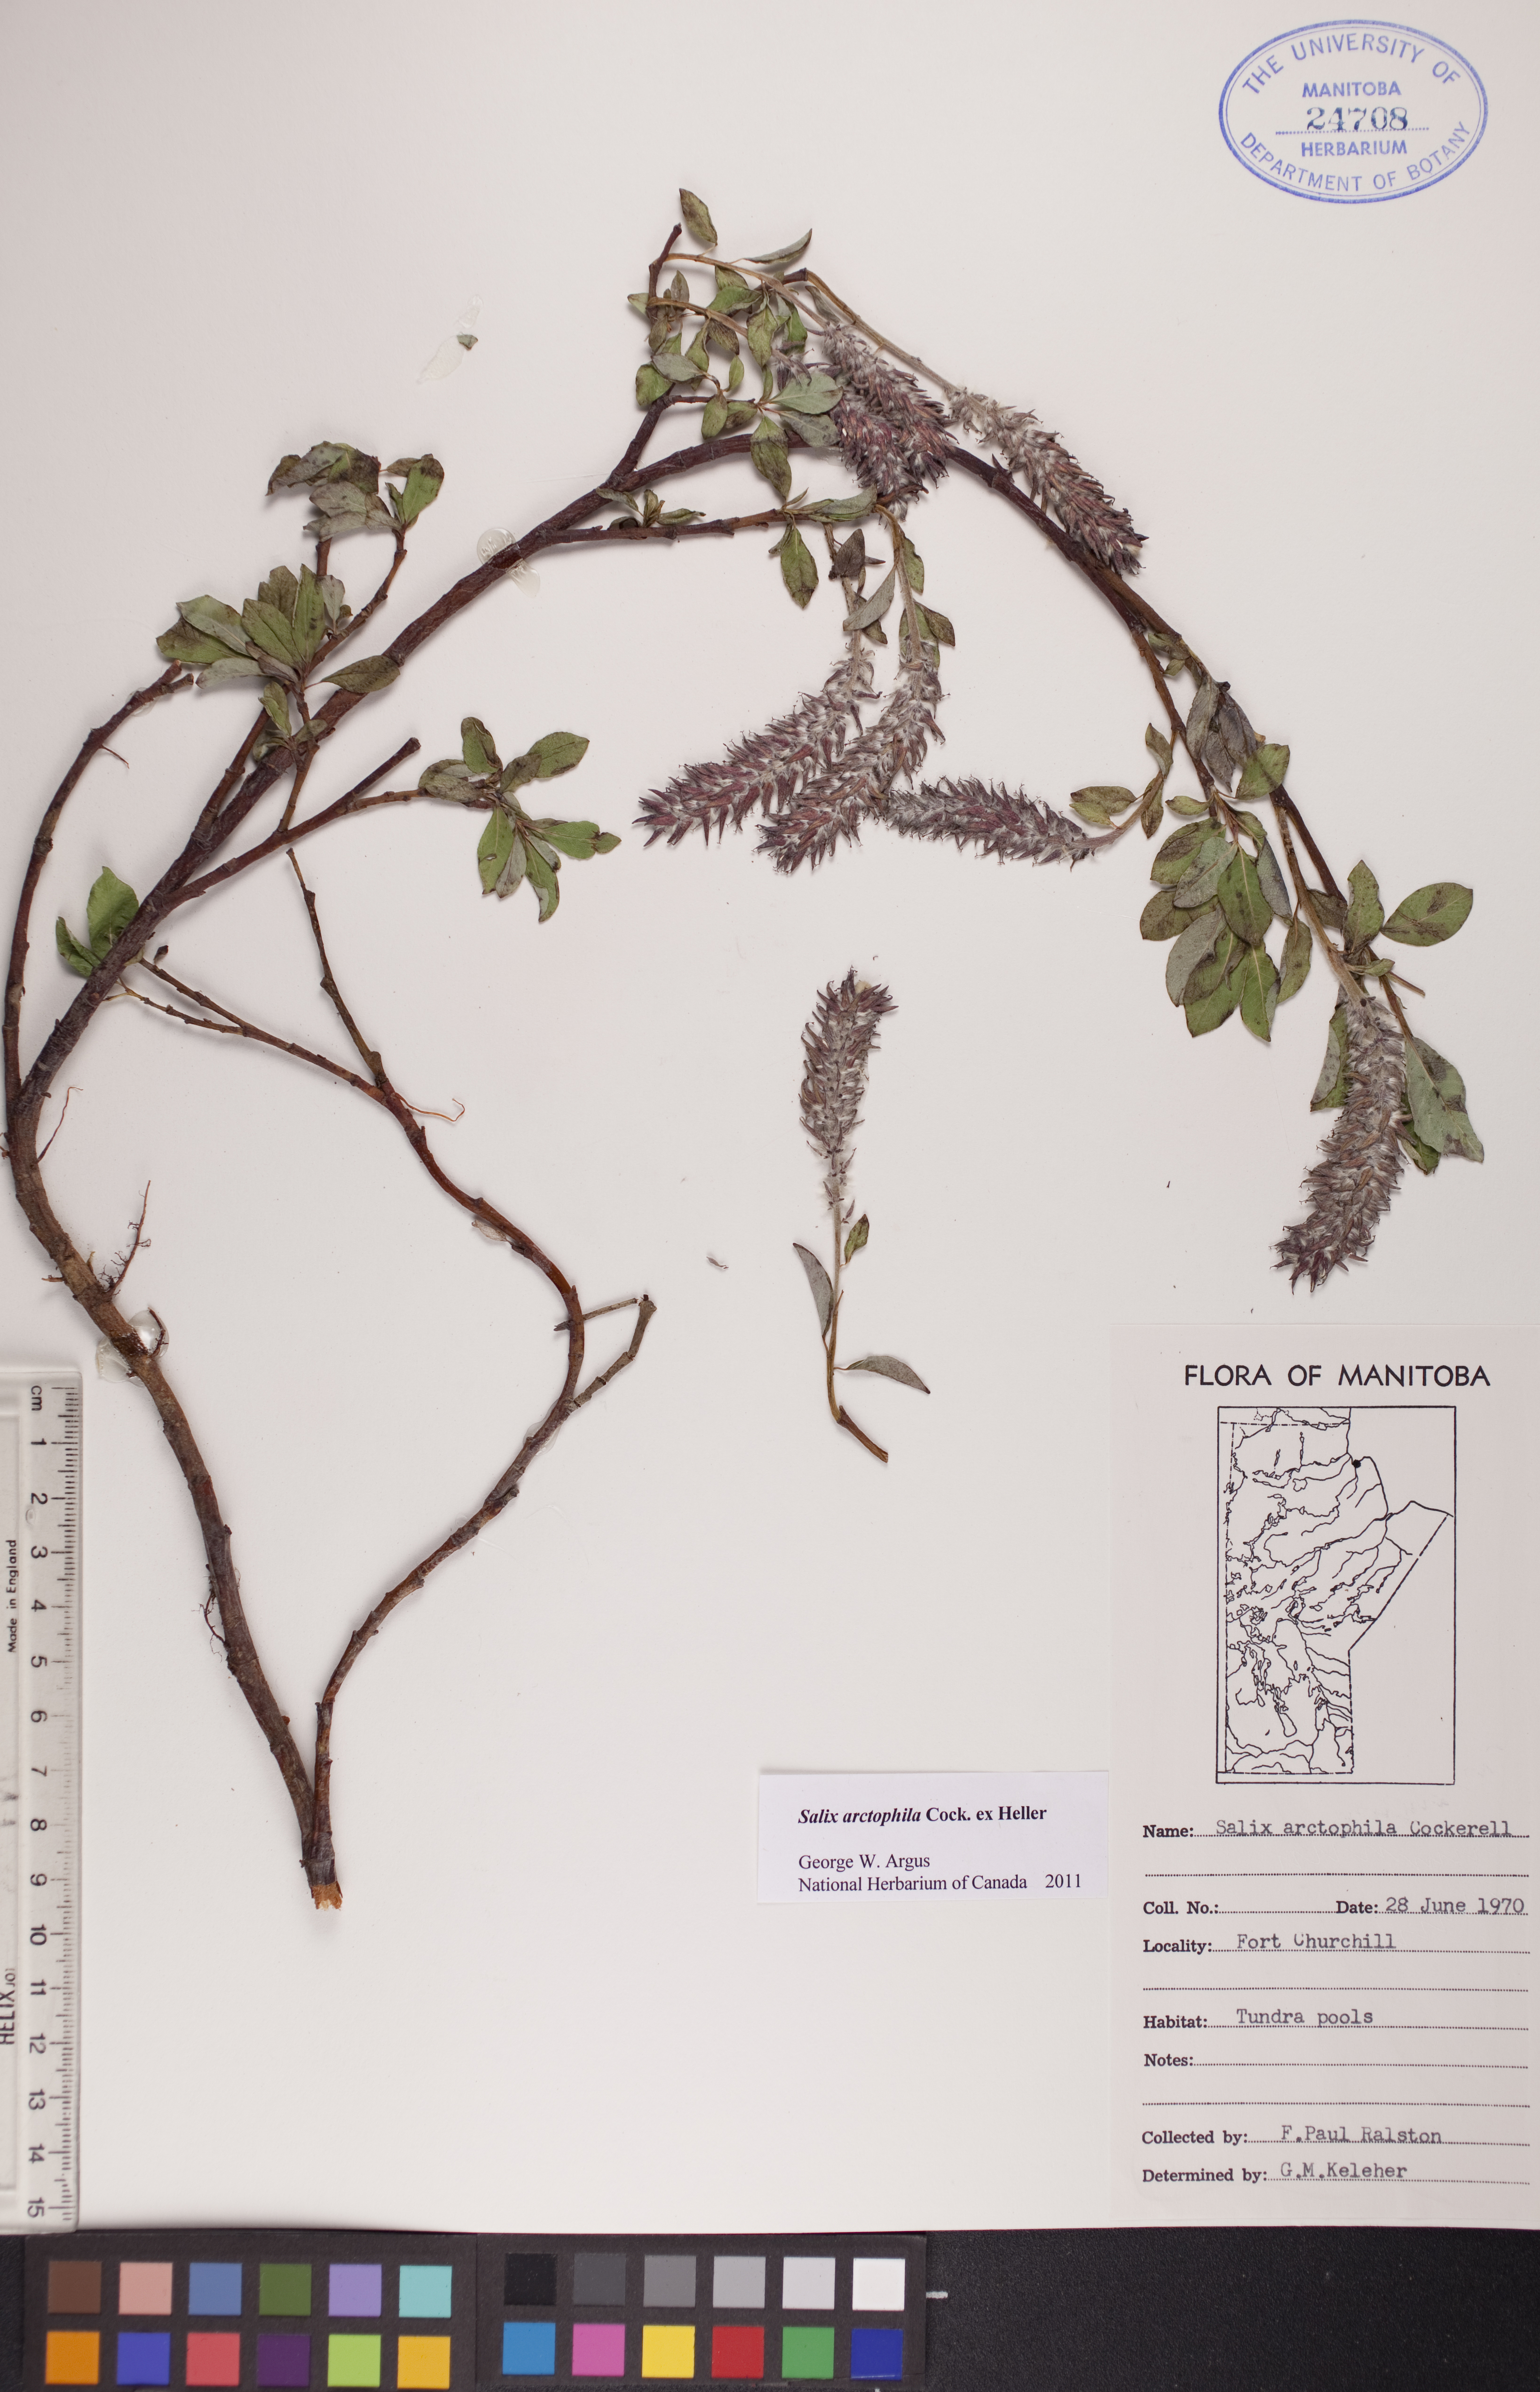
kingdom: Plantae
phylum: Tracheophyta
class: Magnoliopsida
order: Malpighiales
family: Salicaceae
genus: Salix
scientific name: Salix arctophila
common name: Greenland willow
